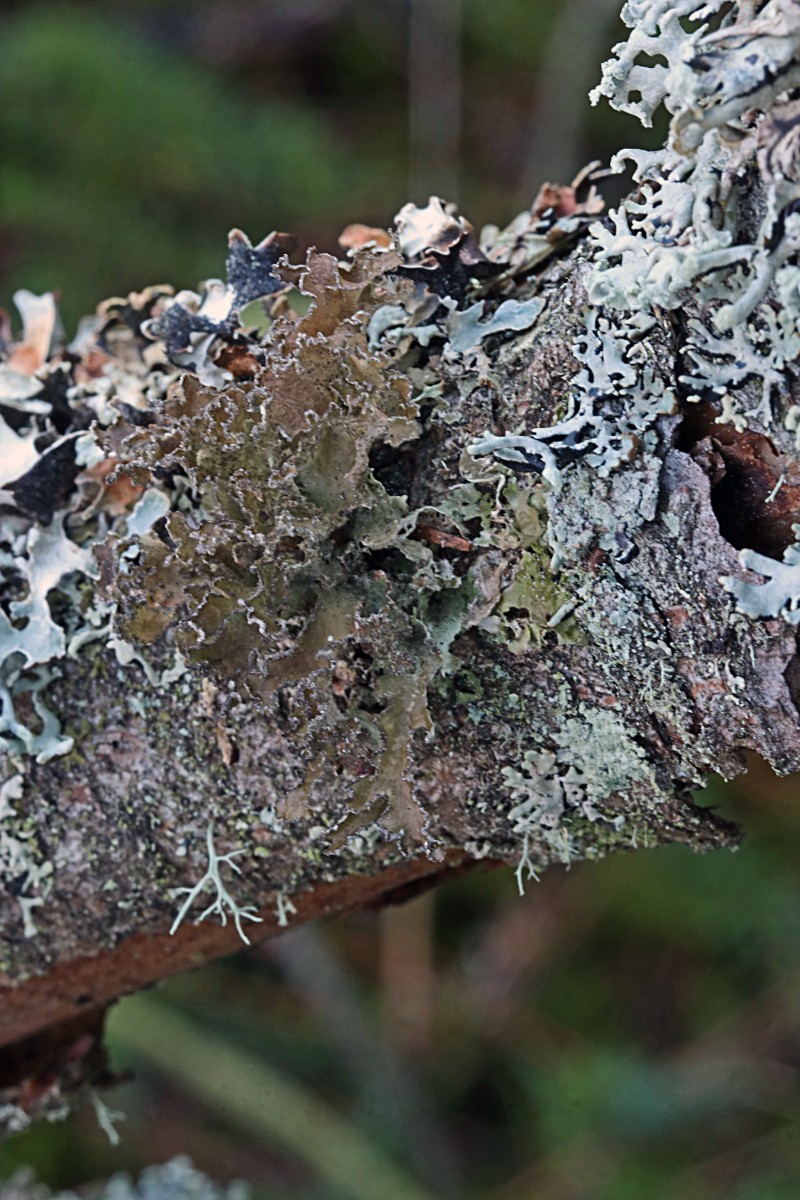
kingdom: Fungi
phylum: Ascomycota
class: Lecanoromycetes
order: Lecanorales
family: Parmeliaceae
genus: Nephromopsis
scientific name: Nephromopsis chlorophylla
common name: olivenbrun kruslav
